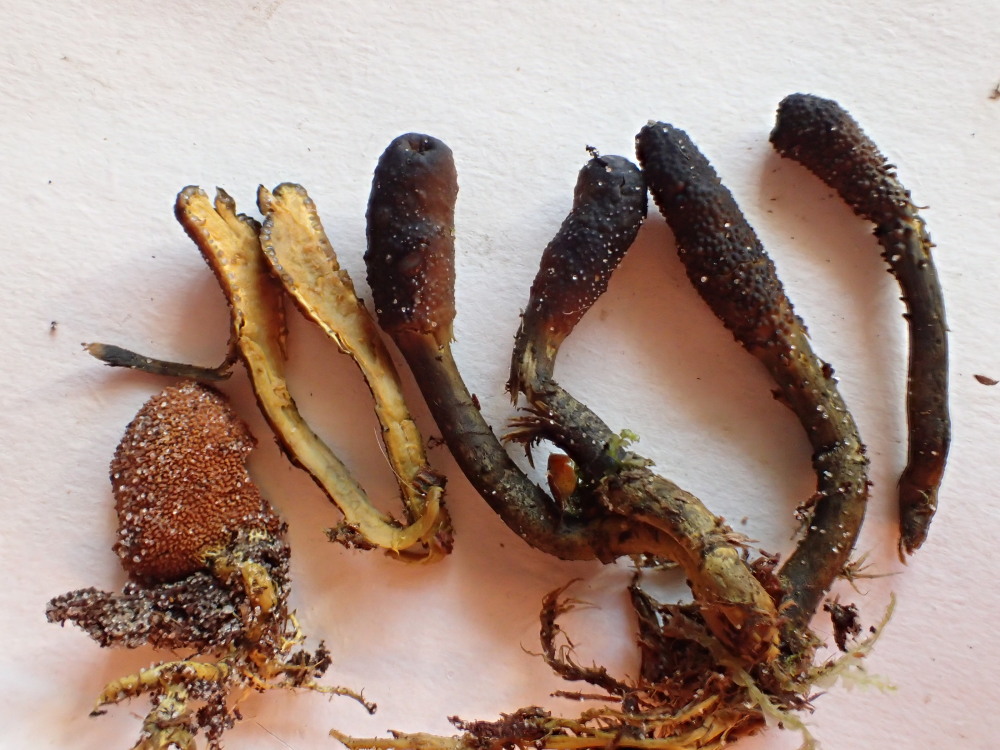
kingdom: Fungi
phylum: Ascomycota
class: Sordariomycetes
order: Hypocreales
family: Ophiocordycipitaceae
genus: Tolypocladium
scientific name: Tolypocladium ophioglossoides
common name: slank snyltekølle
